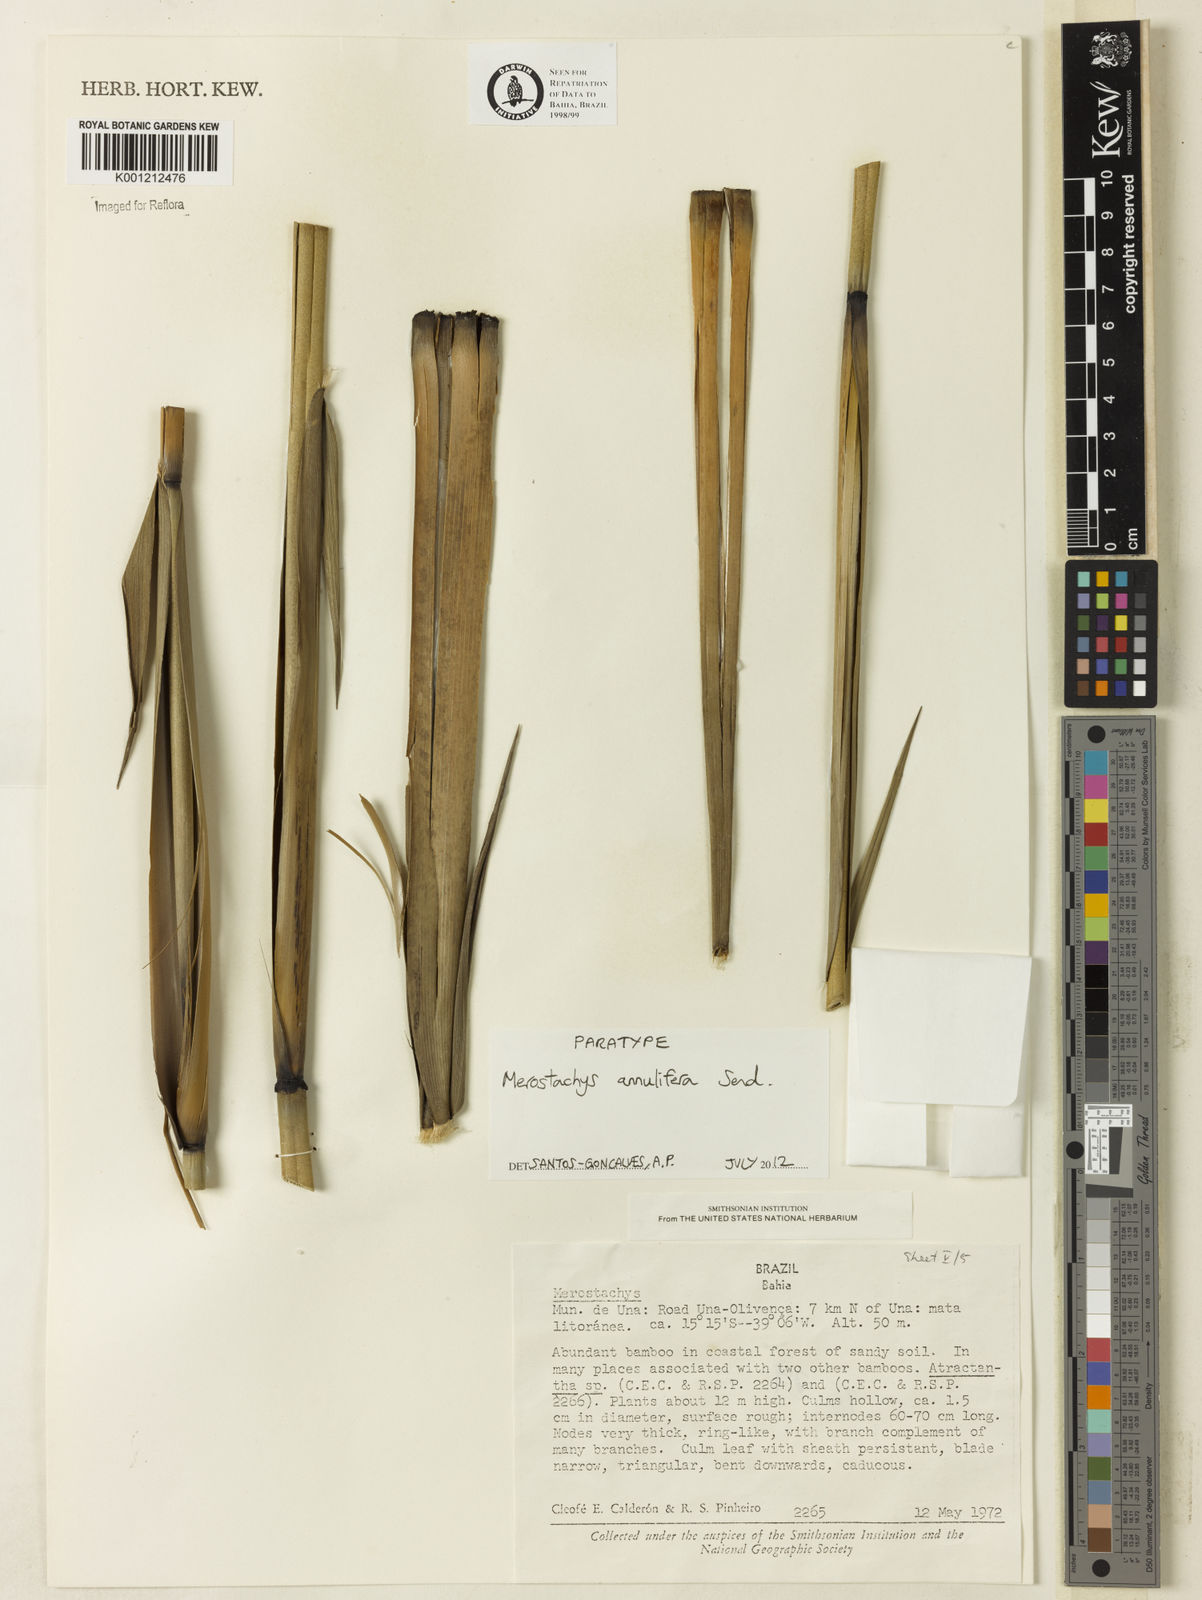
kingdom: Plantae
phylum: Tracheophyta
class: Liliopsida
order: Poales
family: Poaceae
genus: Merostachys
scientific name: Merostachys annulifera
